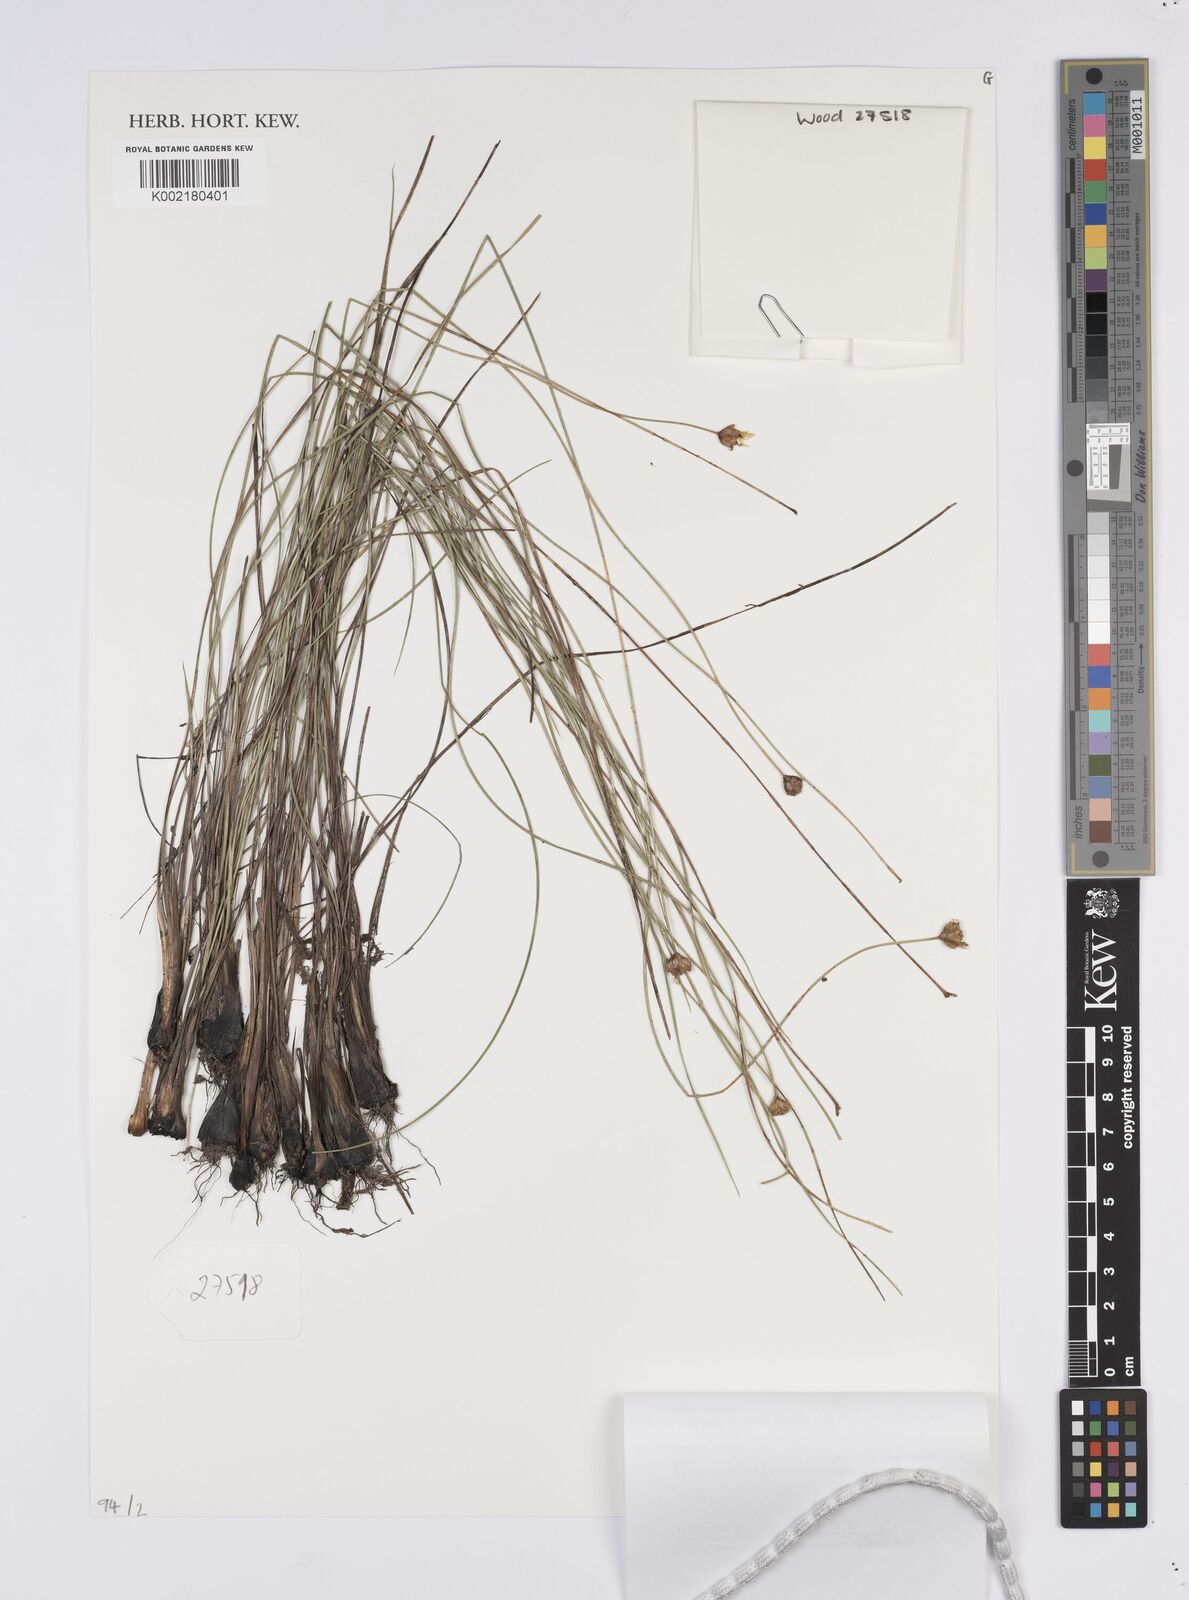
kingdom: Plantae
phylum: Tracheophyta
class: Liliopsida
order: Poales
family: Xyridaceae
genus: Xyris
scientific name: Xyris
